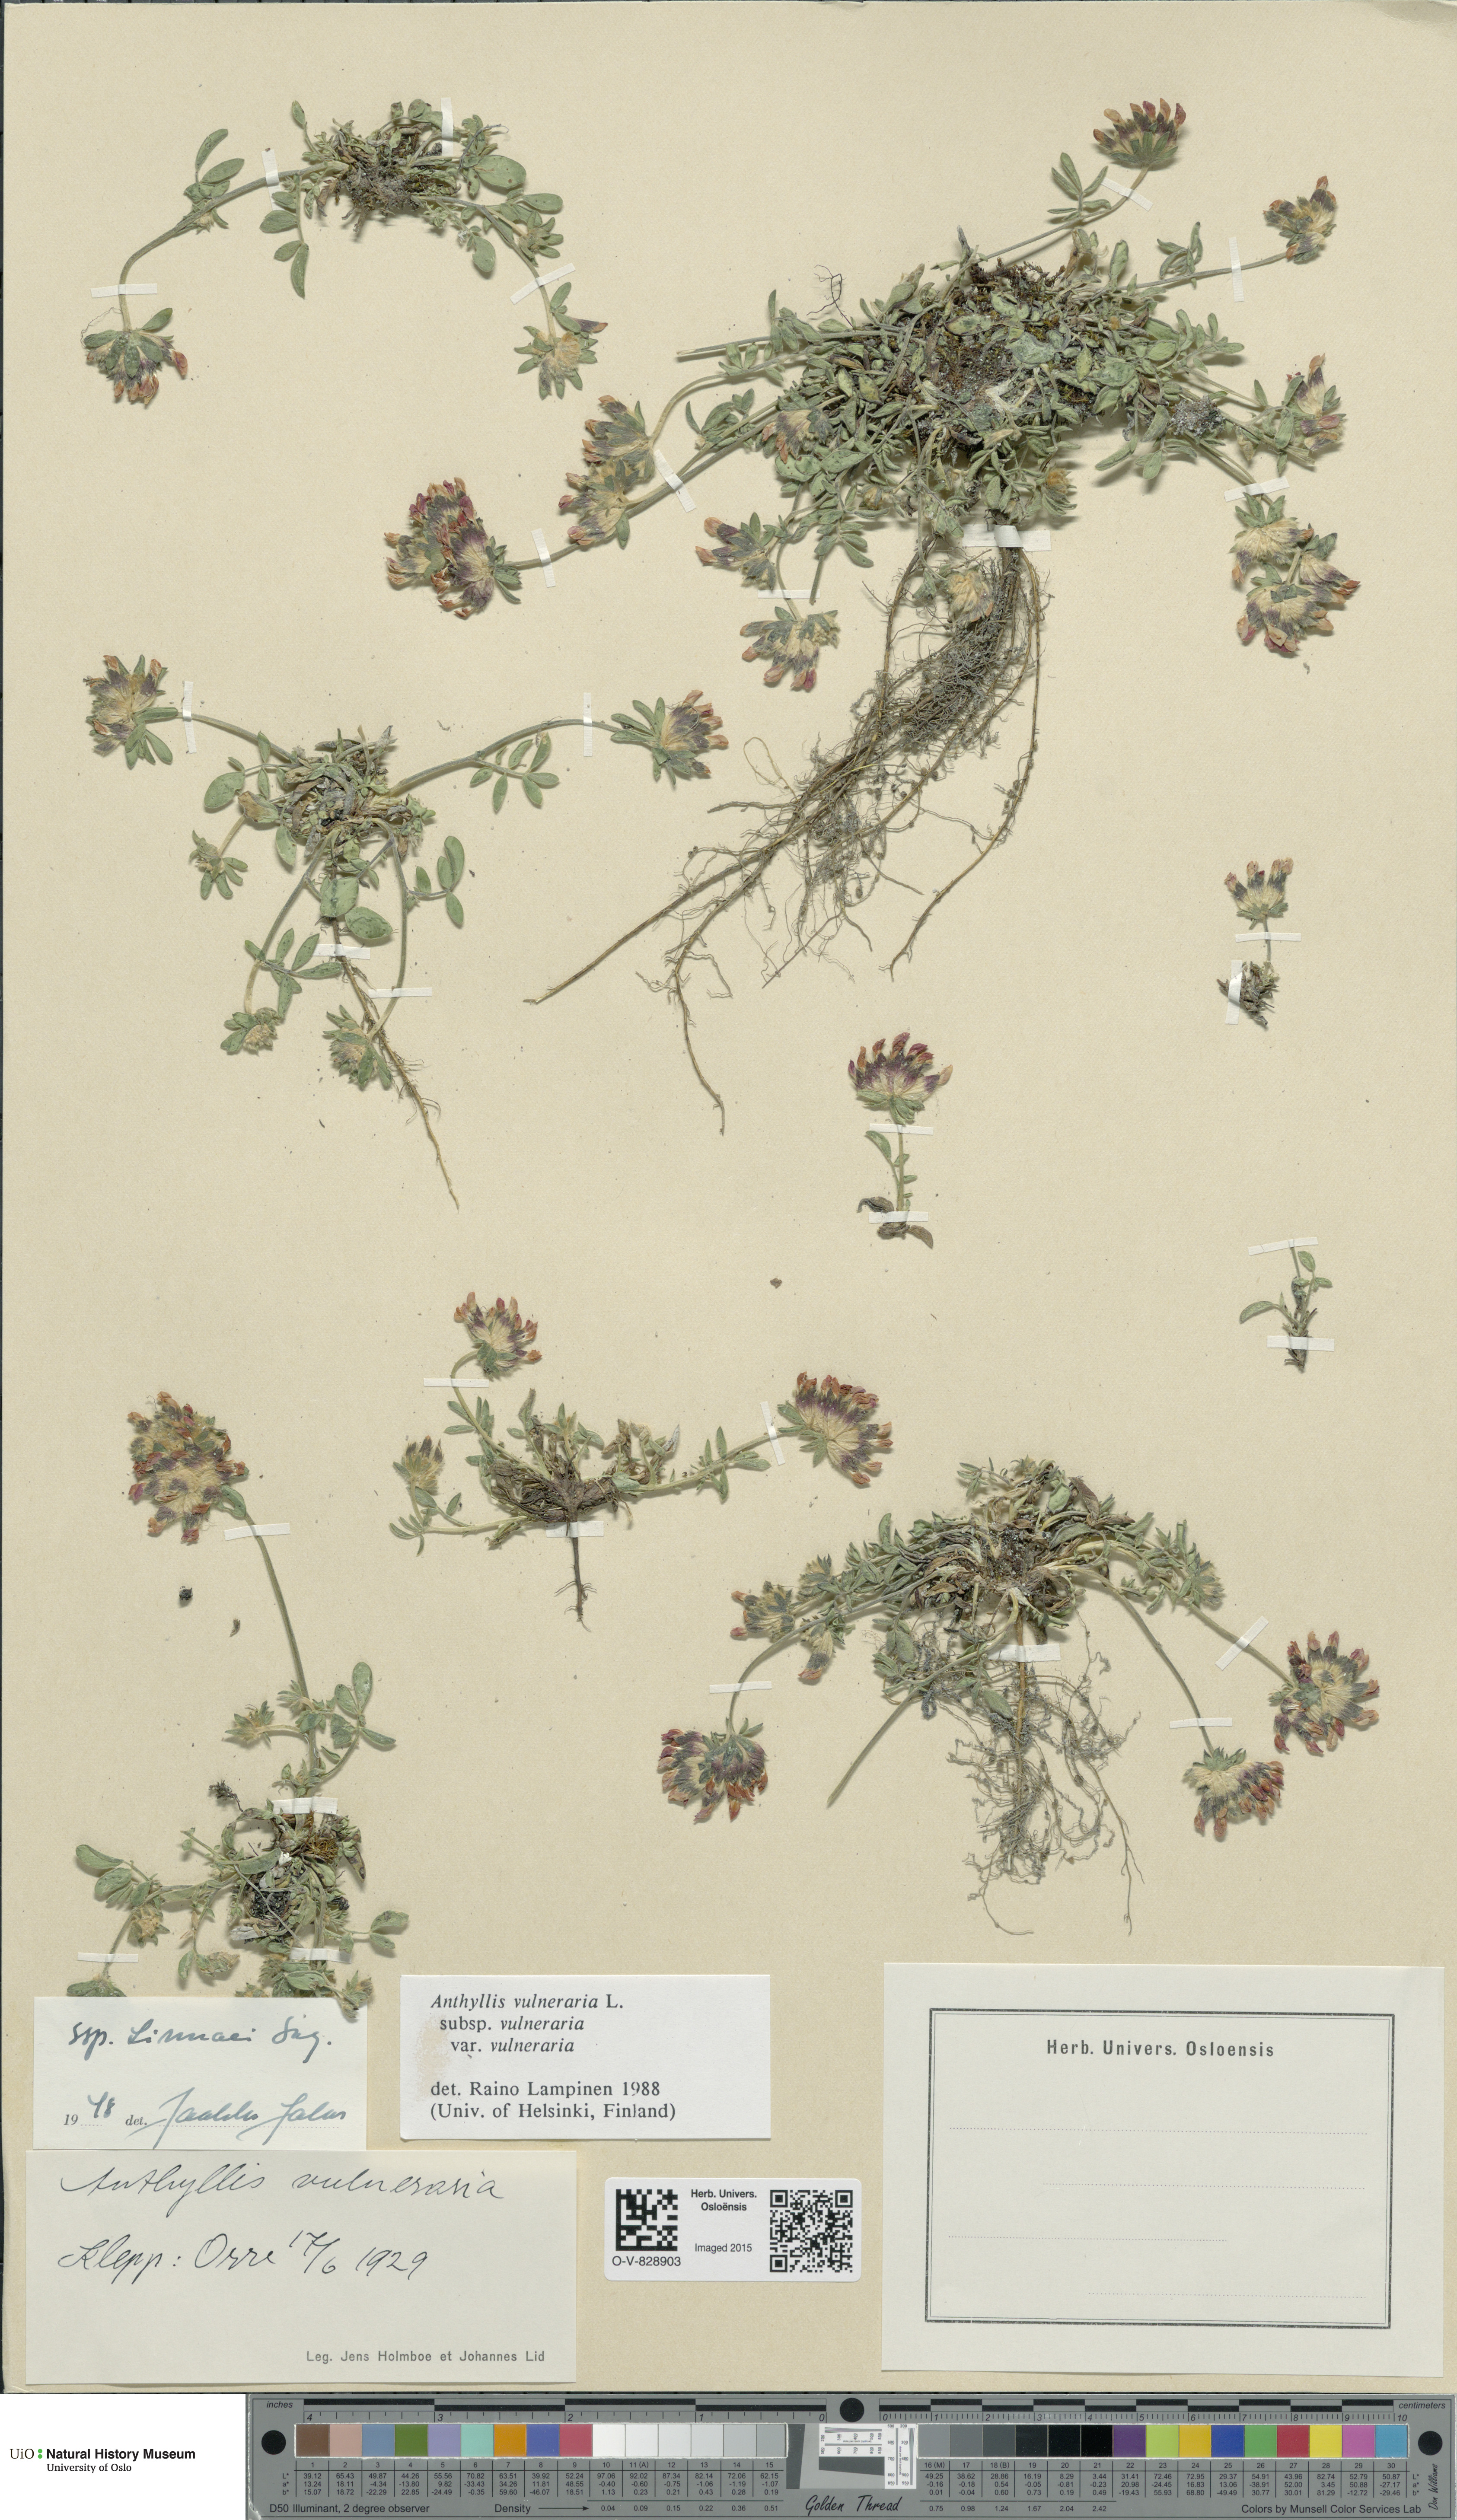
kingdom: Plantae
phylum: Tracheophyta
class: Magnoliopsida
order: Fabales
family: Fabaceae
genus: Anthyllis
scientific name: Anthyllis vulneraria
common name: Kidney vetch
